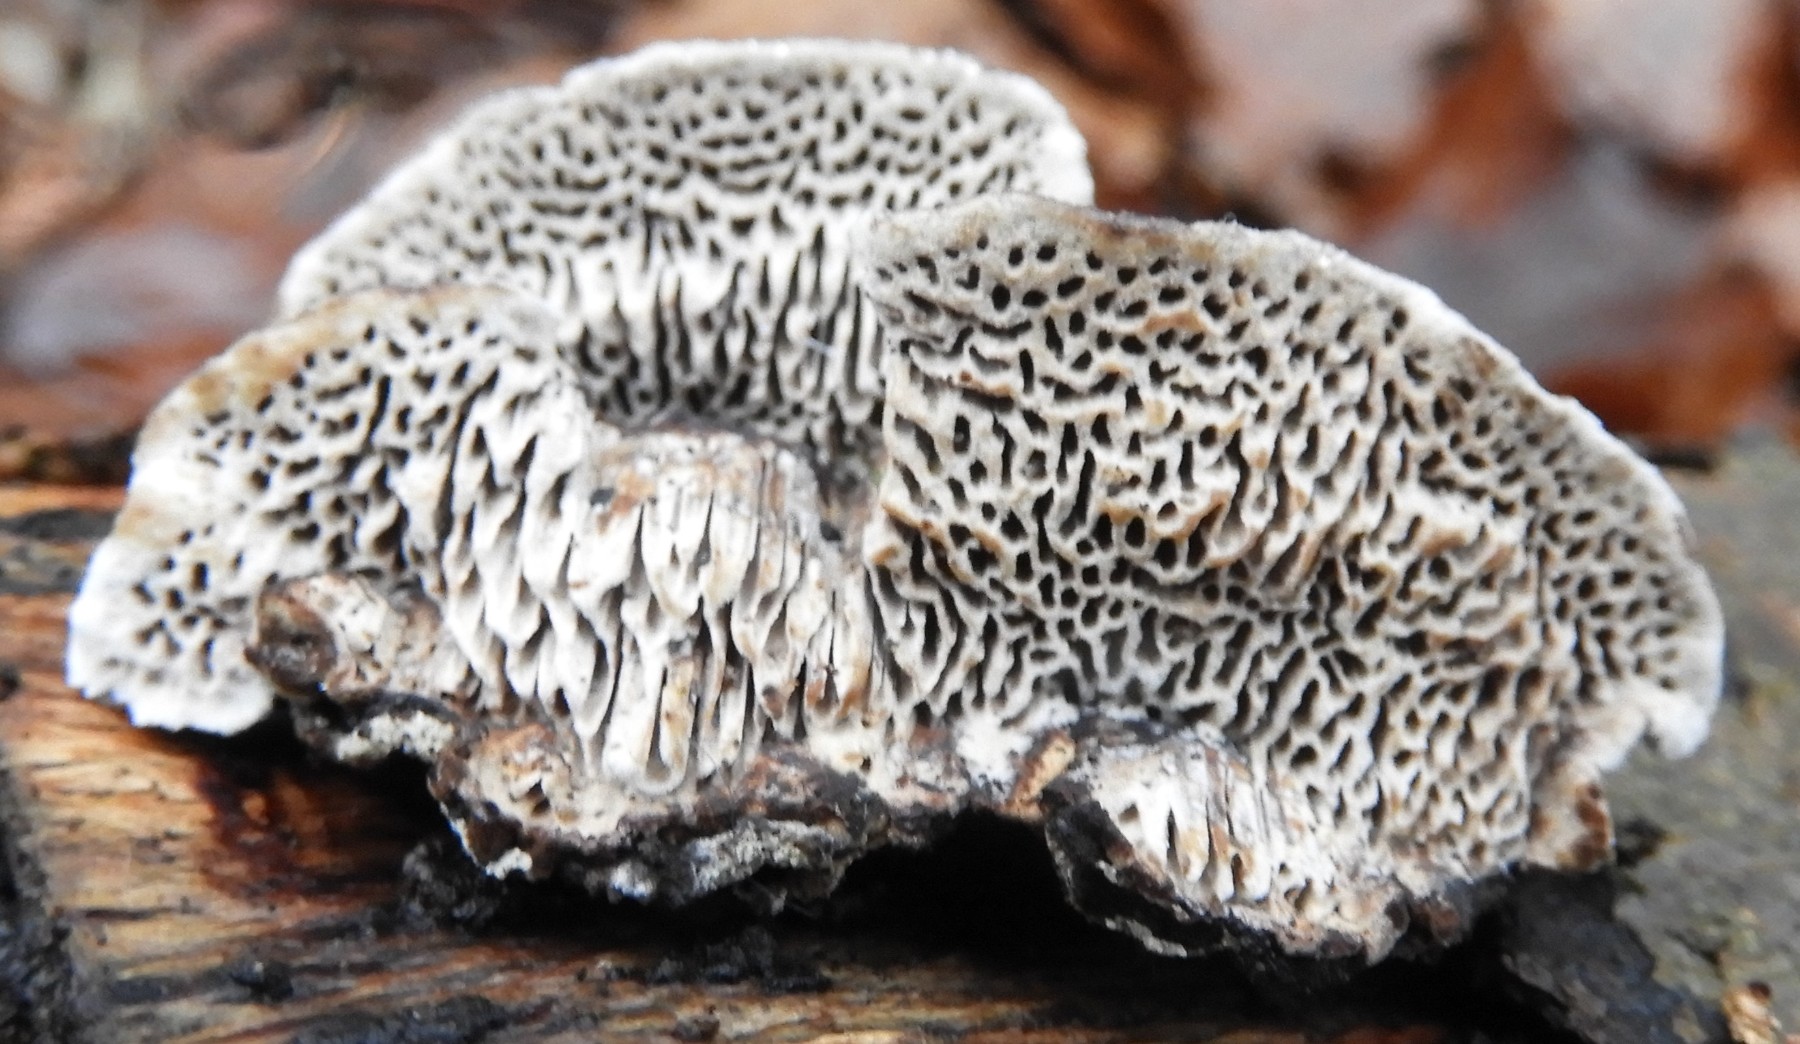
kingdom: Fungi
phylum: Basidiomycota
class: Agaricomycetes
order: Polyporales
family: Polyporaceae
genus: Podofomes
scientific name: Podofomes mollis
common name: blød begporesvamp
